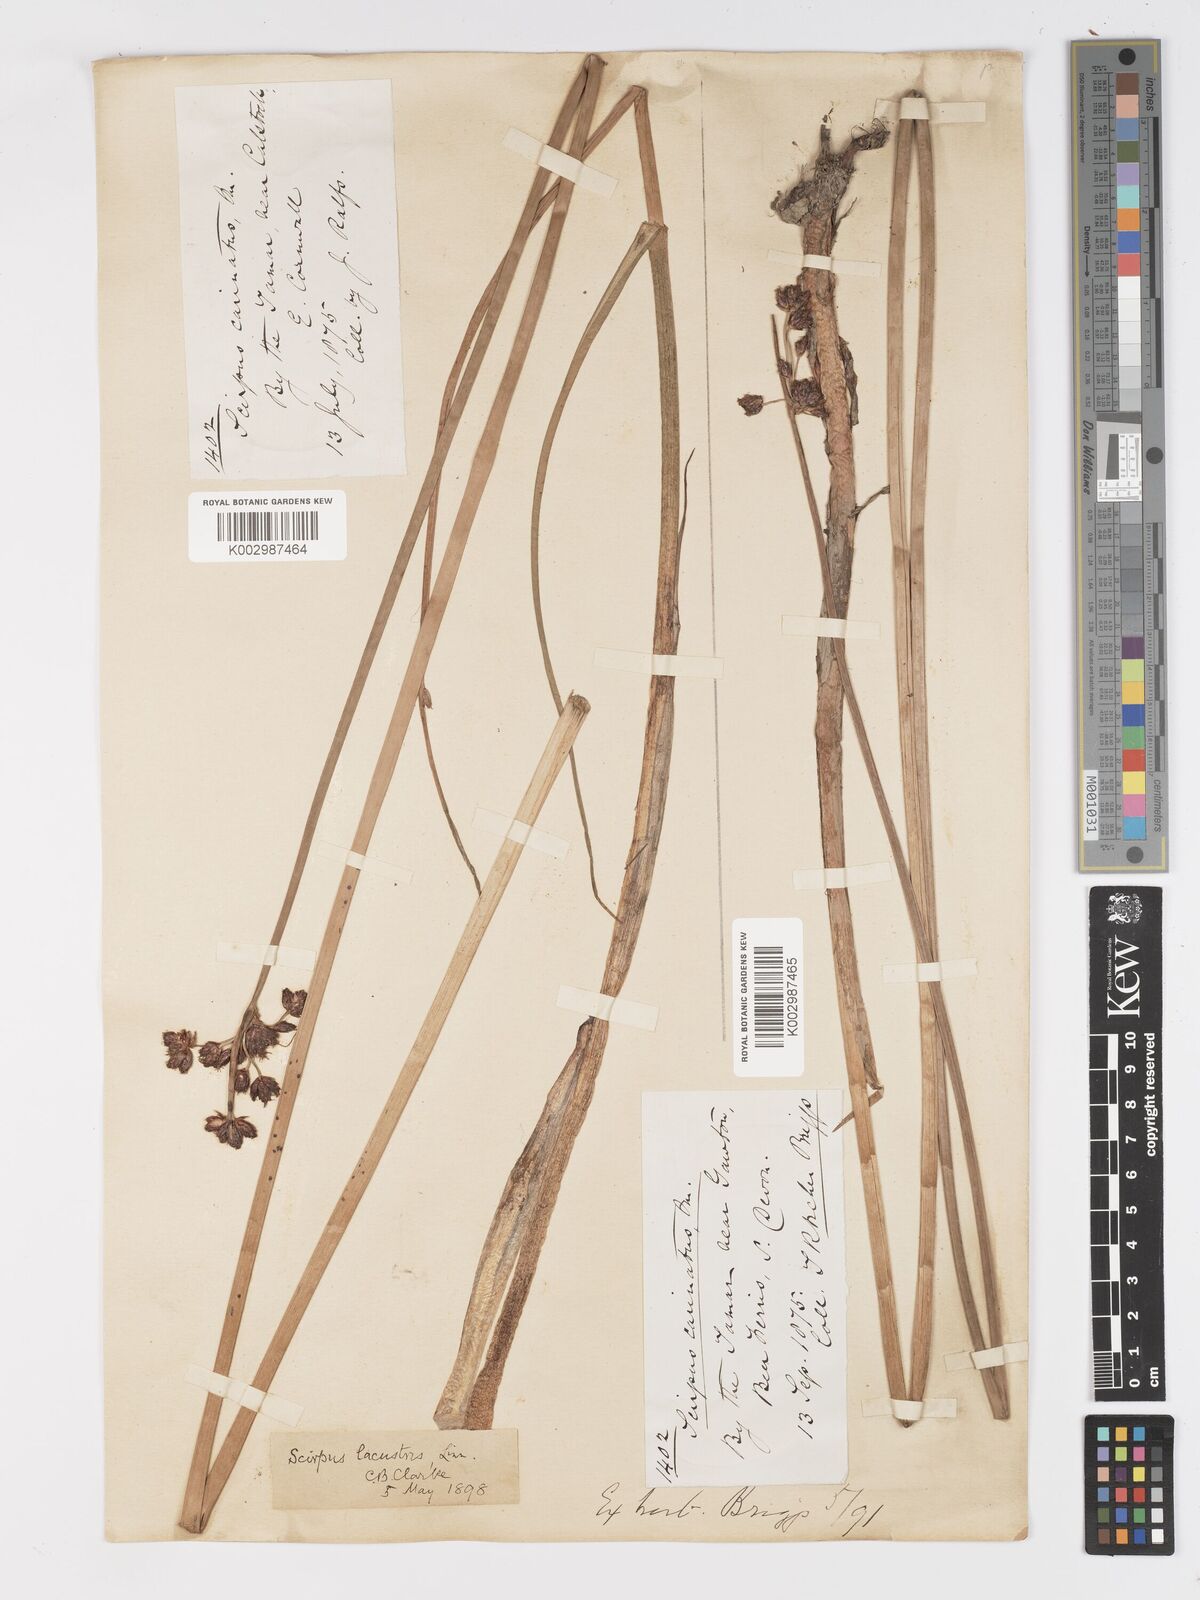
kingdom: Plantae
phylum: Tracheophyta
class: Liliopsida
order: Poales
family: Cyperaceae
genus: Schoenoplectus
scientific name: Schoenoplectus carinatus
